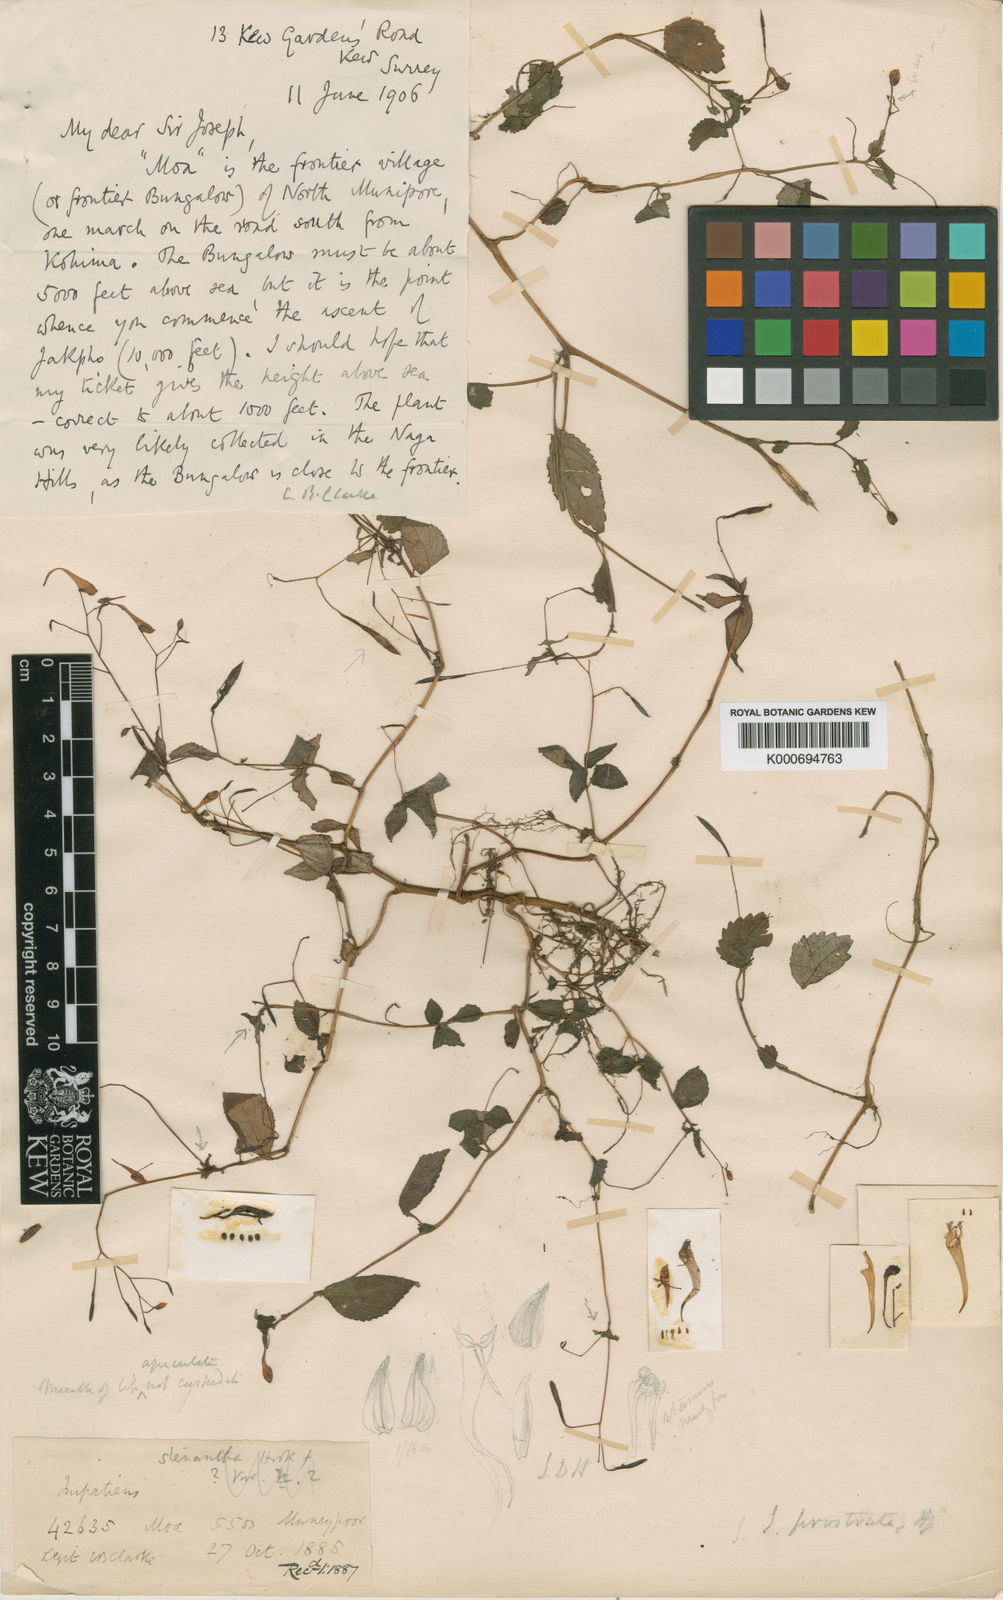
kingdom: Plantae
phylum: Tracheophyta
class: Magnoliopsida
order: Ericales
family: Balsaminaceae
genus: Impatiens
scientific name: Impatiens prostrata
